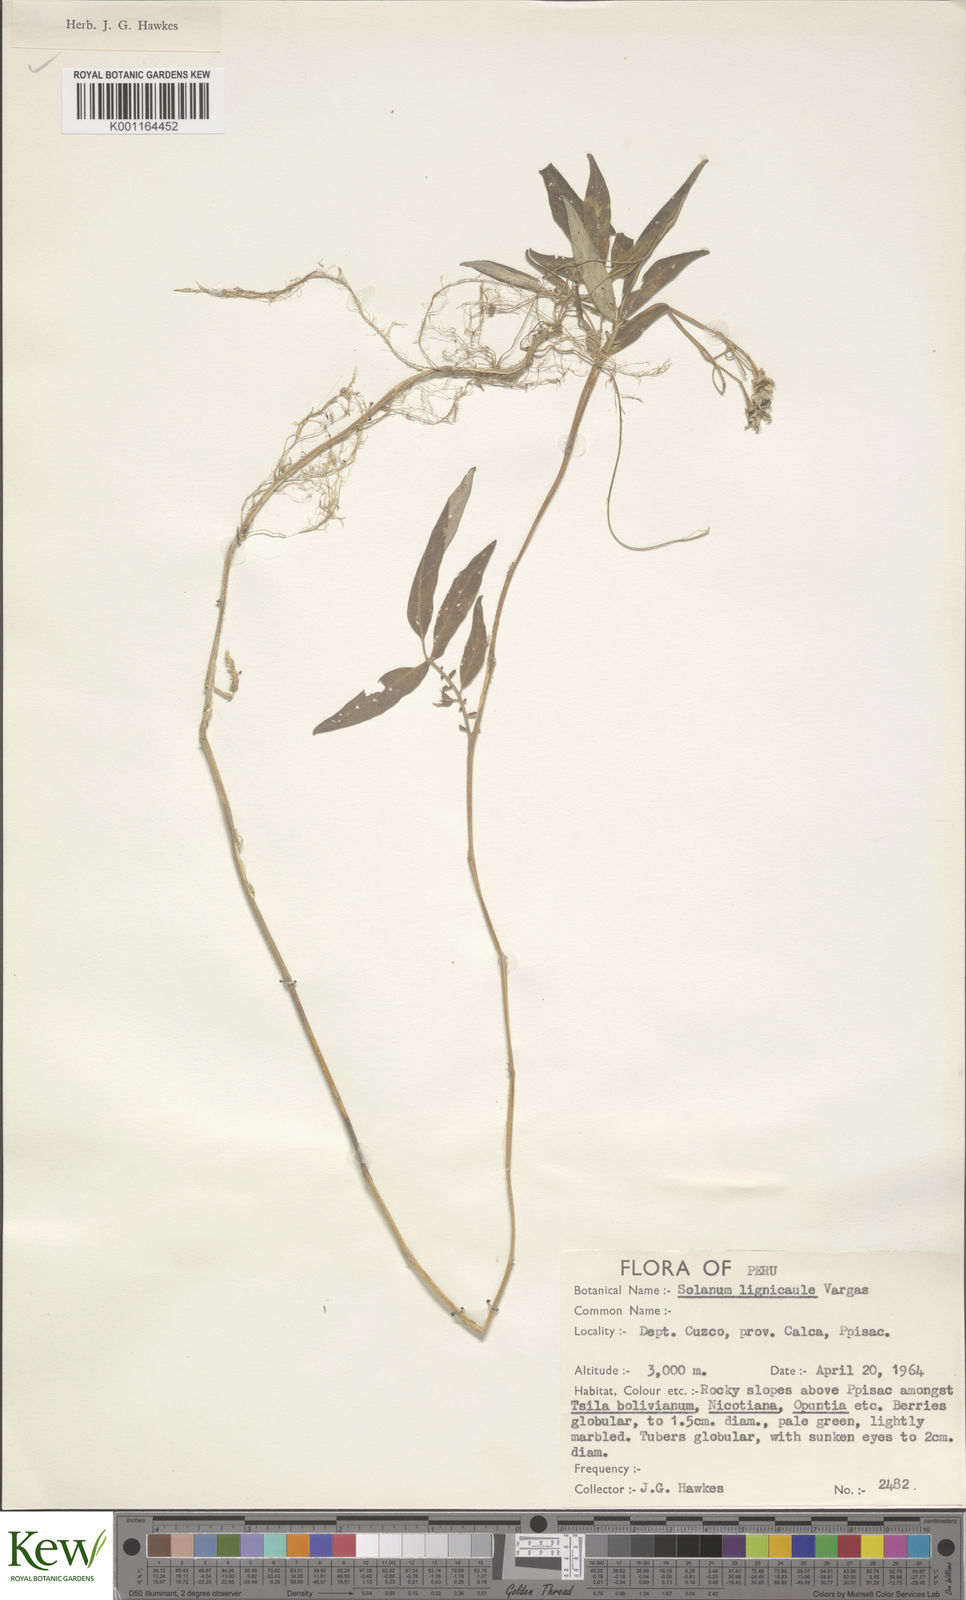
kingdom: Plantae
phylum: Tracheophyta
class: Magnoliopsida
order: Solanales
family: Solanaceae
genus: Solanum
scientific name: Solanum lignicaule
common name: Fox potato
